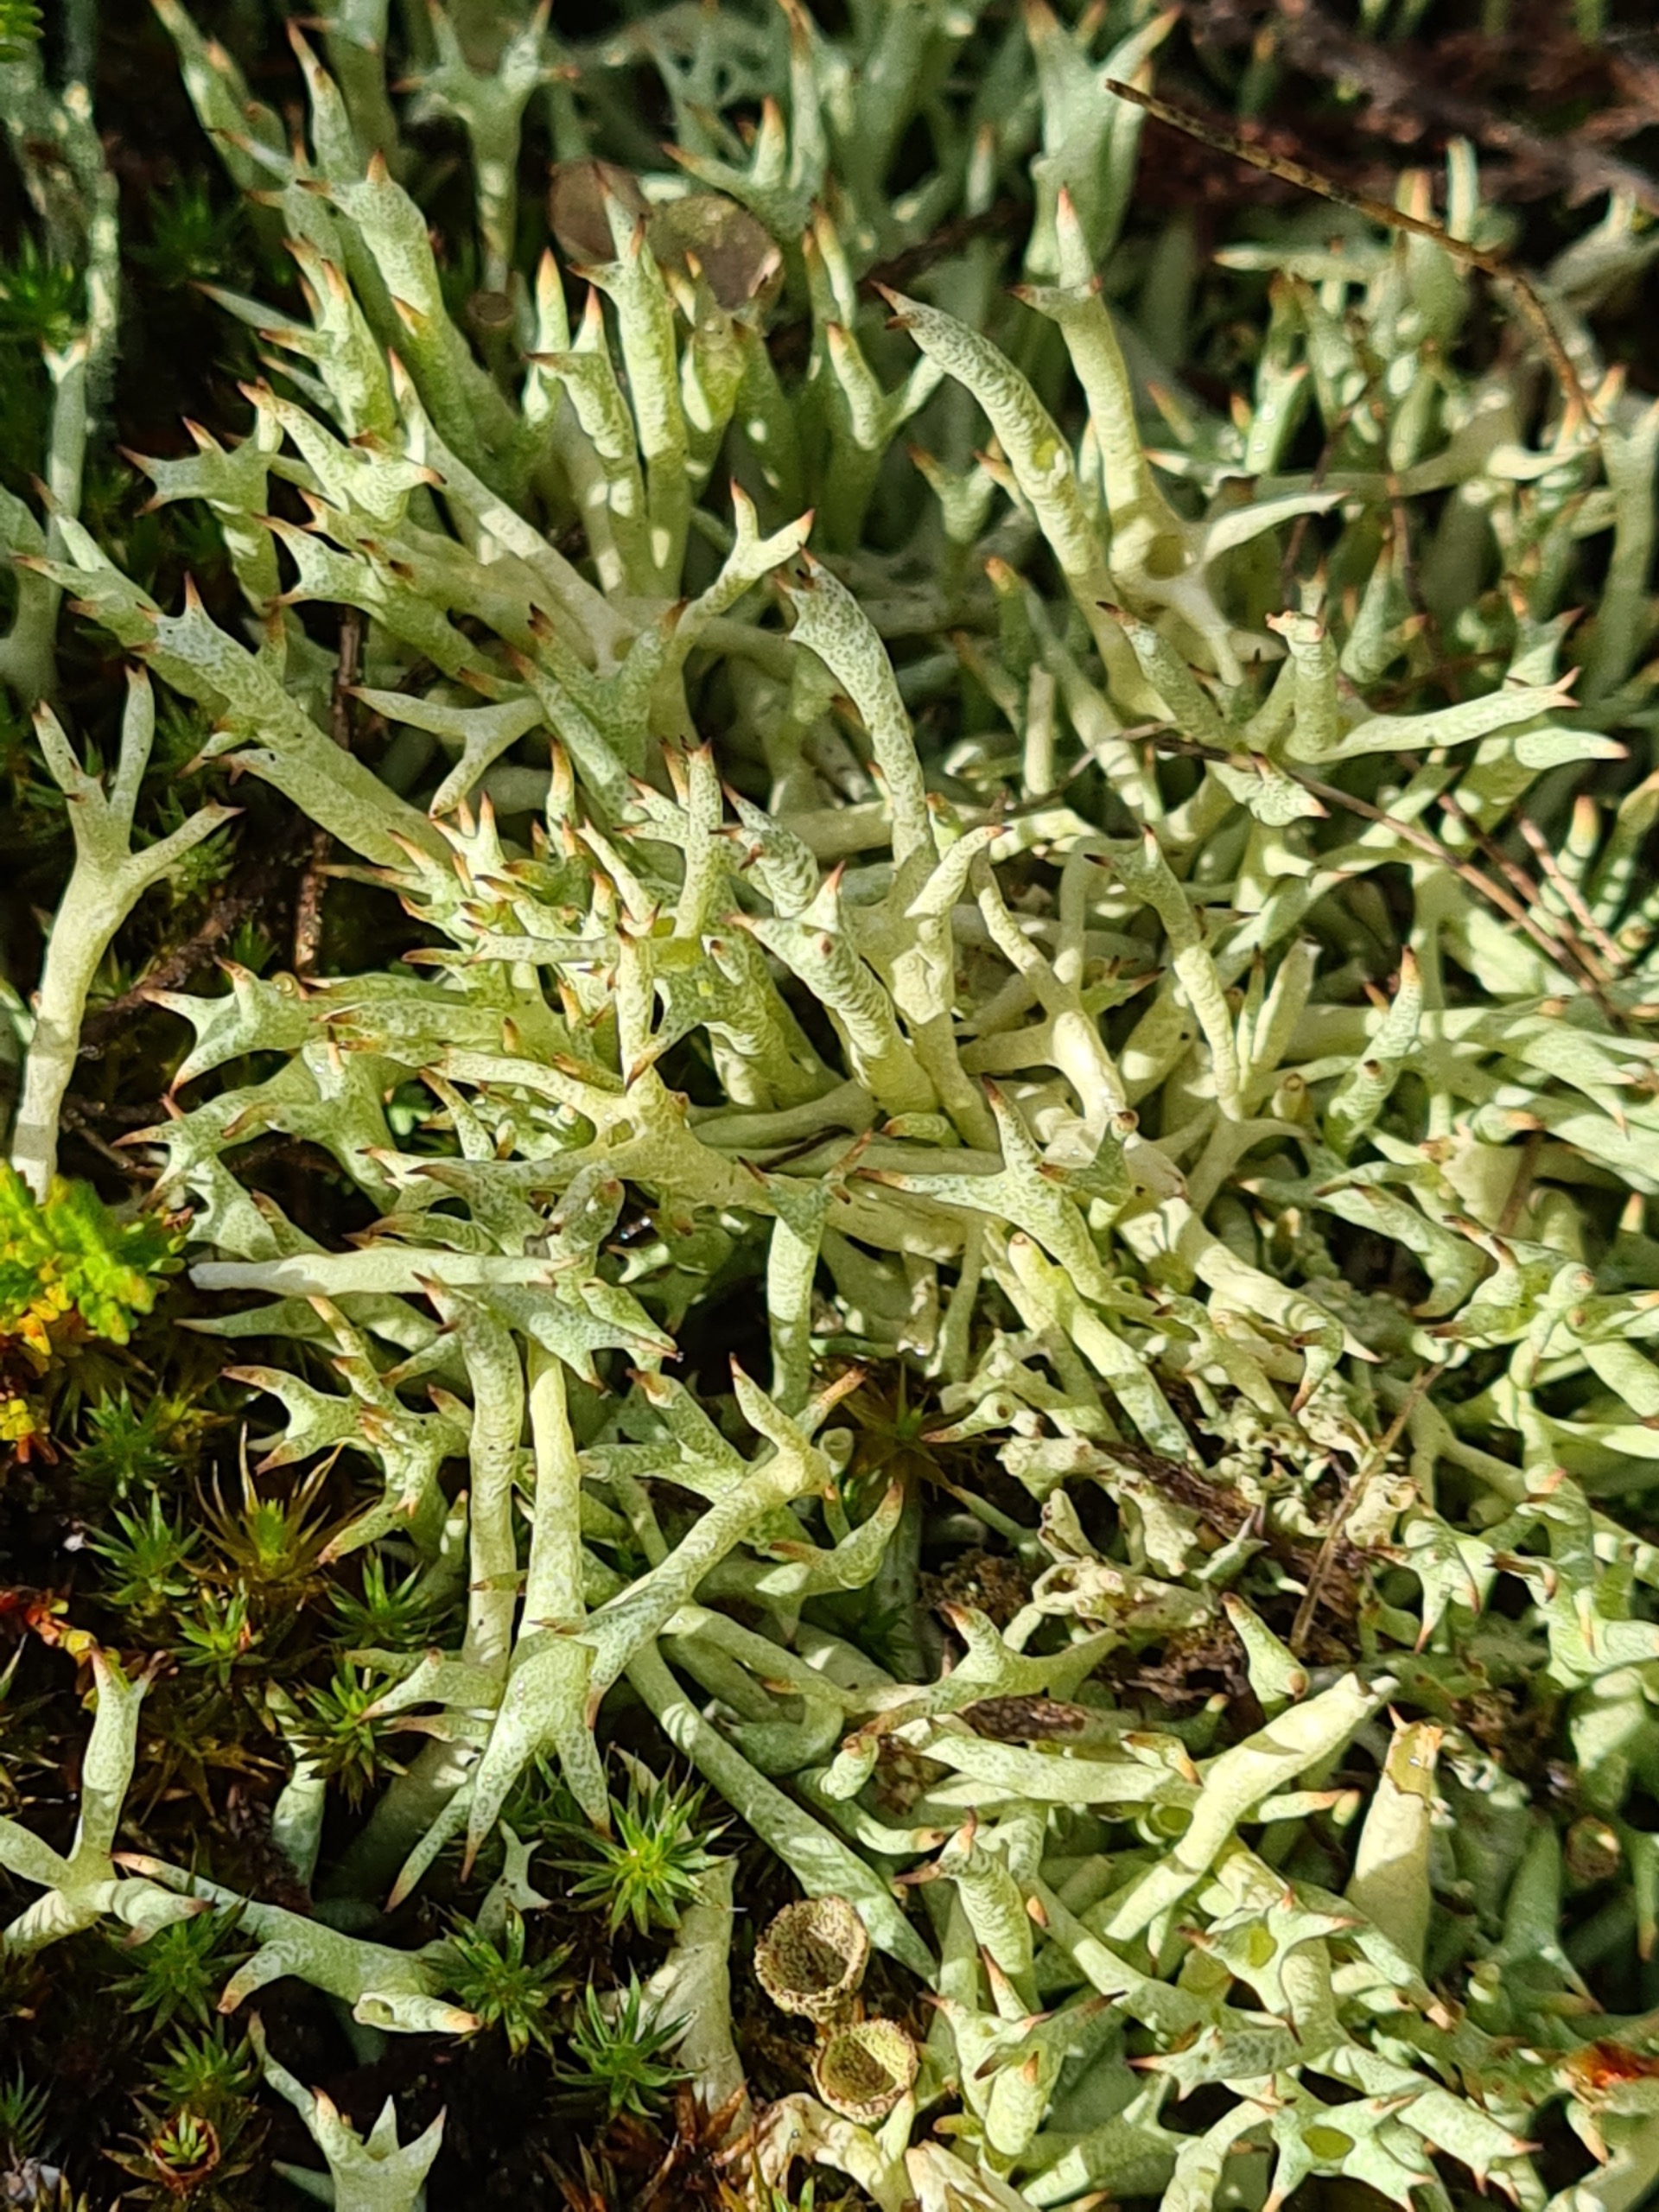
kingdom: Fungi
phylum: Ascomycota
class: Lecanoromycetes
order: Lecanorales
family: Cladoniaceae
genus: Cladonia
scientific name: Cladonia uncialis
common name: Pigget bægerlav
